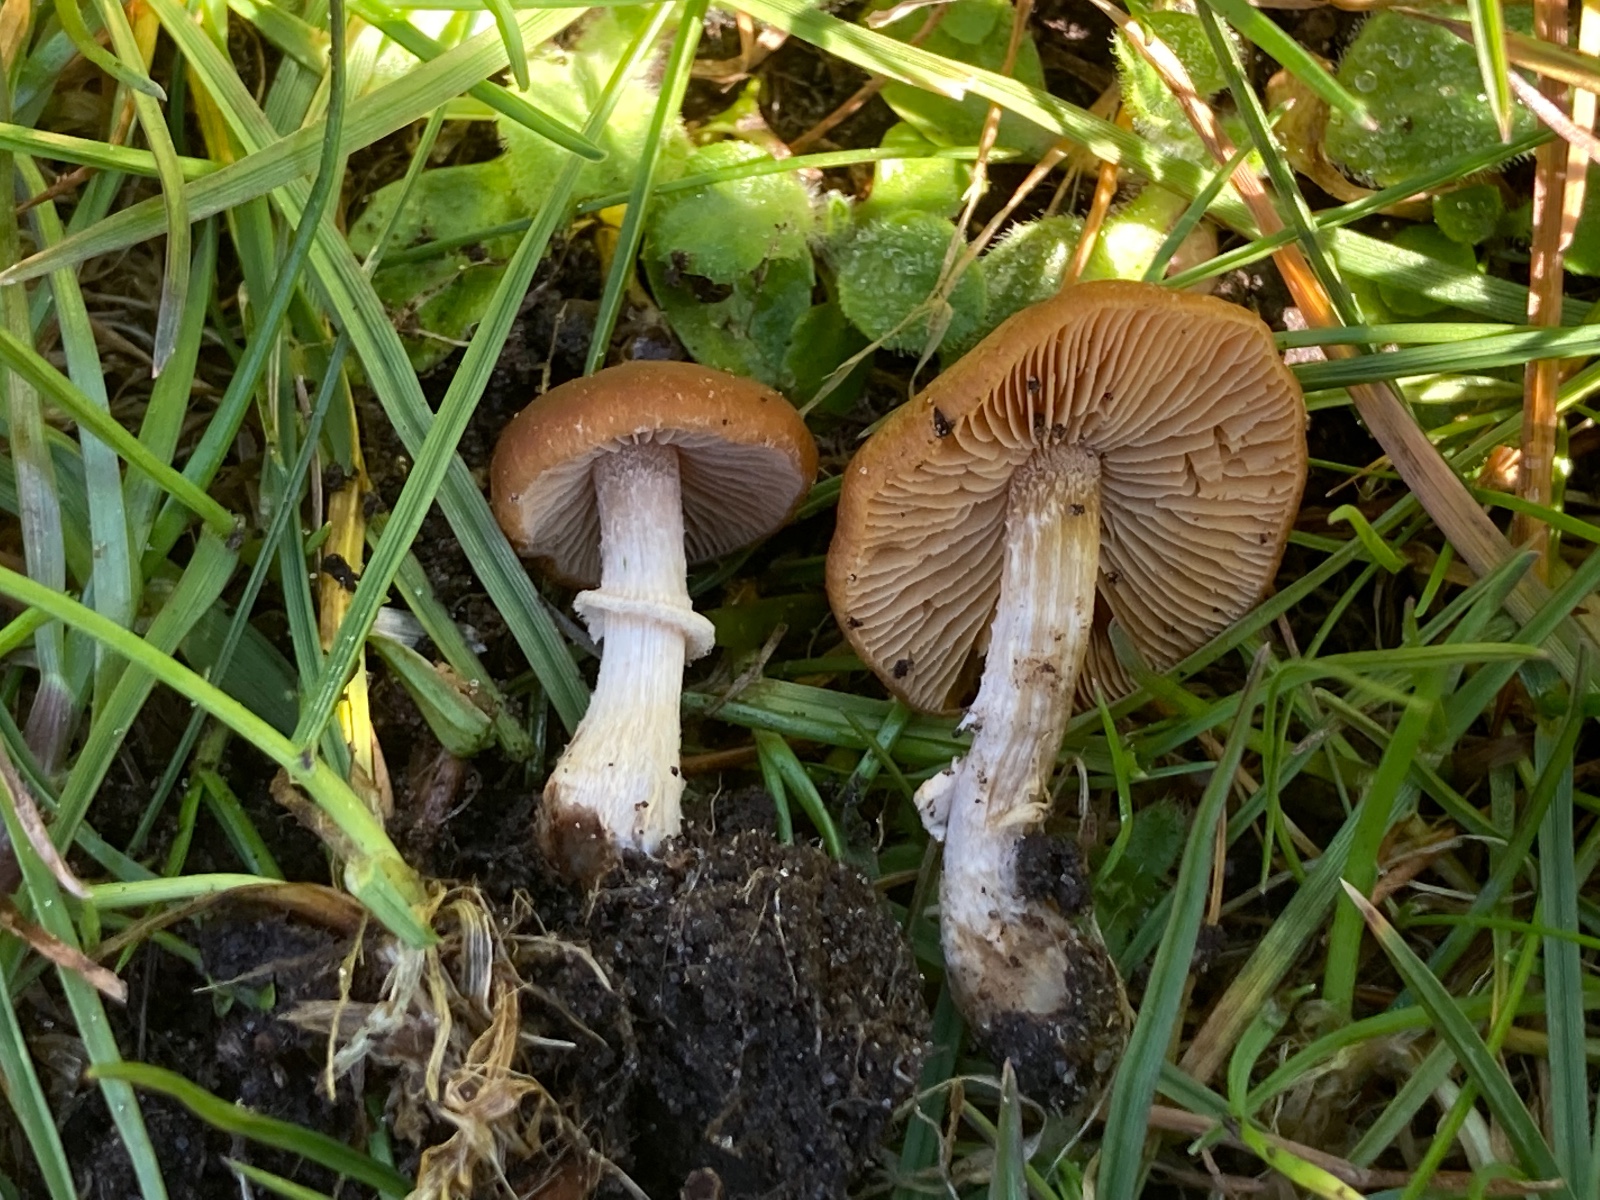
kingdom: Fungi
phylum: Basidiomycota
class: Agaricomycetes
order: Agaricales
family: Bolbitiaceae
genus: Conocybe
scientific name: Conocybe aporos
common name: tidlig dansehat
